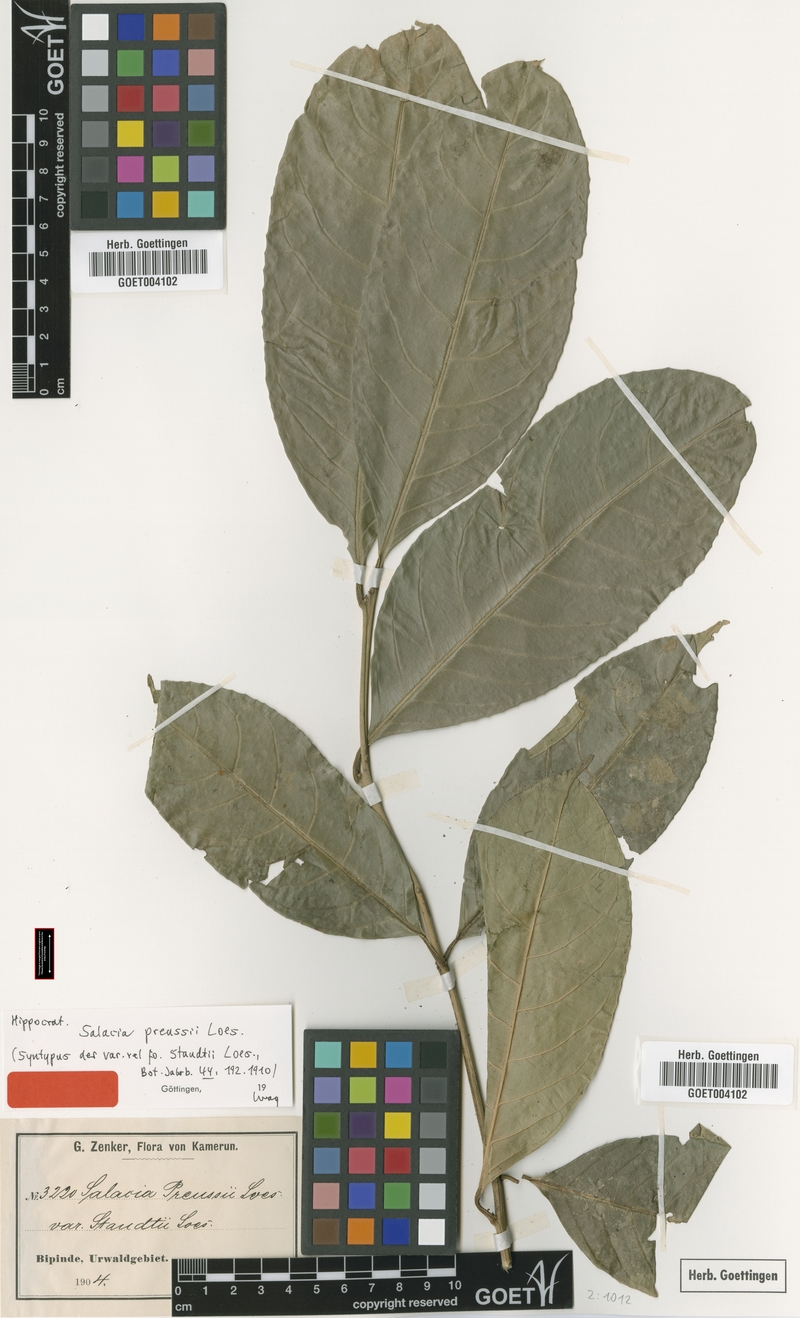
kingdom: Plantae
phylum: Tracheophyta
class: Magnoliopsida
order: Celastrales
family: Celastraceae
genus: Salacia
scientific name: Salacia preussii
